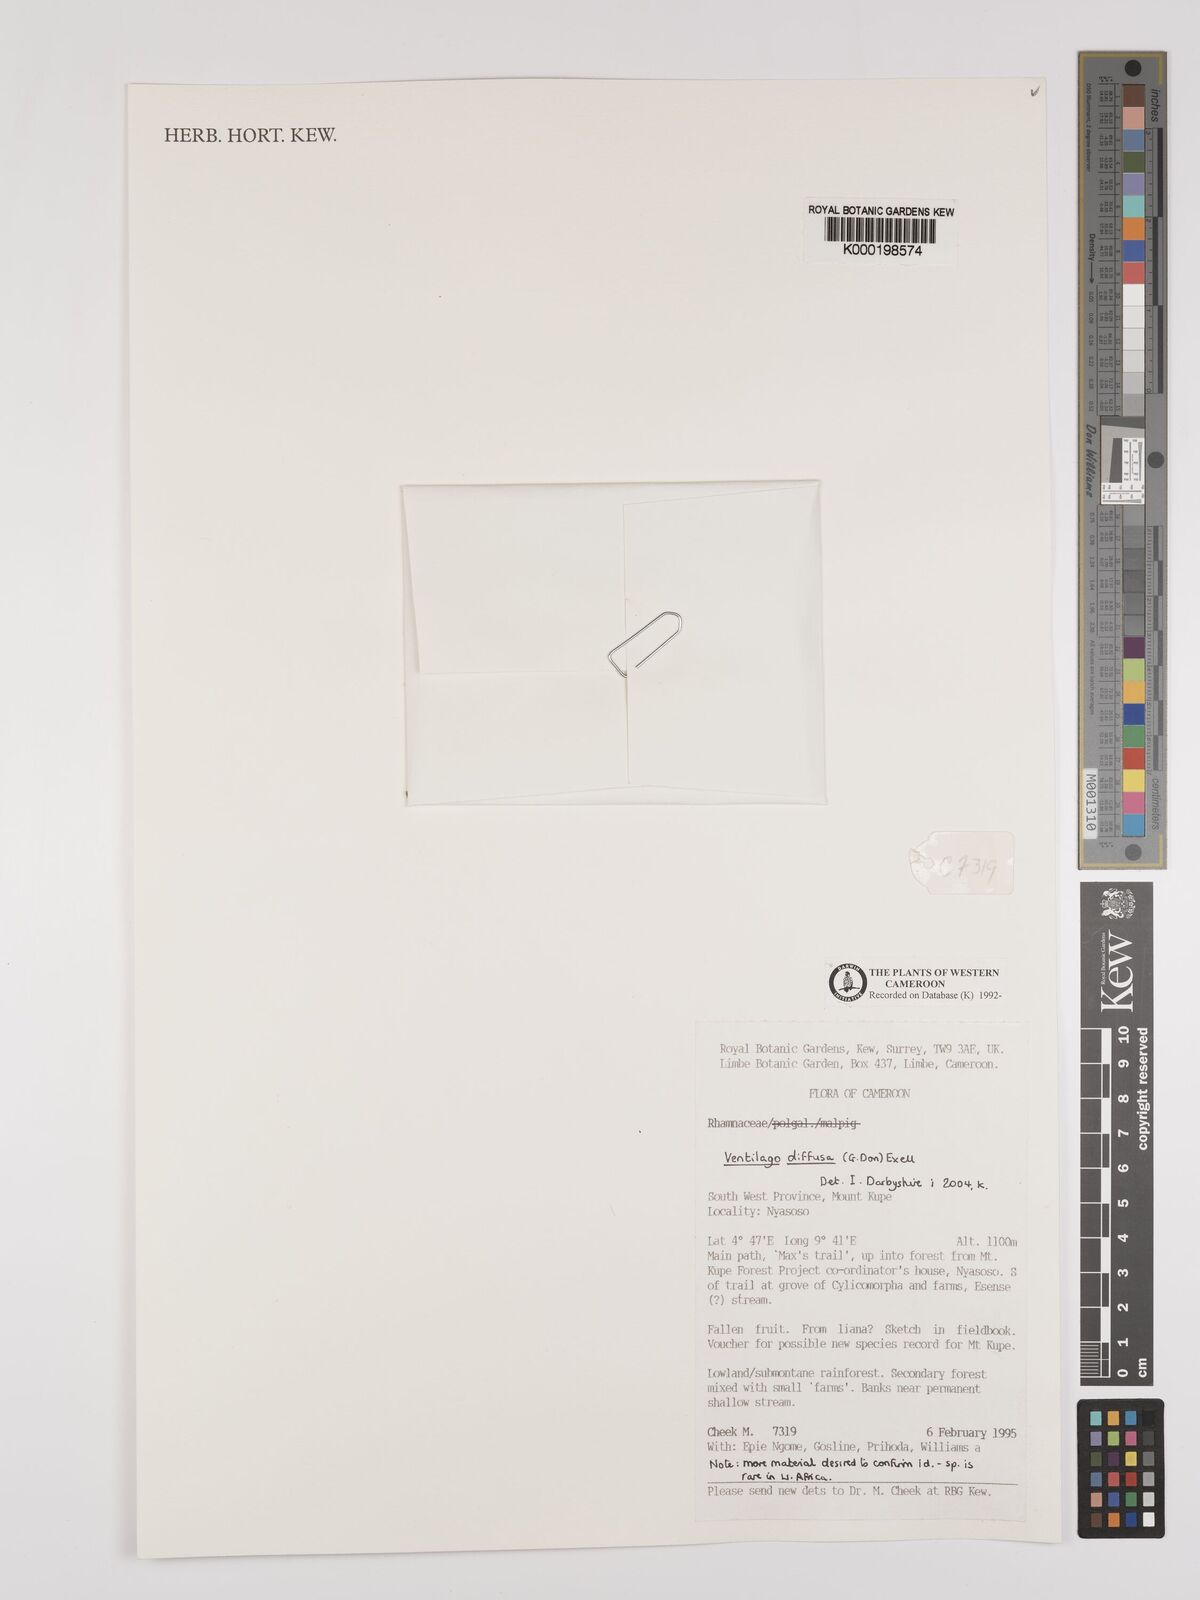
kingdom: Plantae
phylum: Tracheophyta
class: Magnoliopsida
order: Rosales
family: Rhamnaceae
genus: Ventilago
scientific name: Ventilago diffusa
